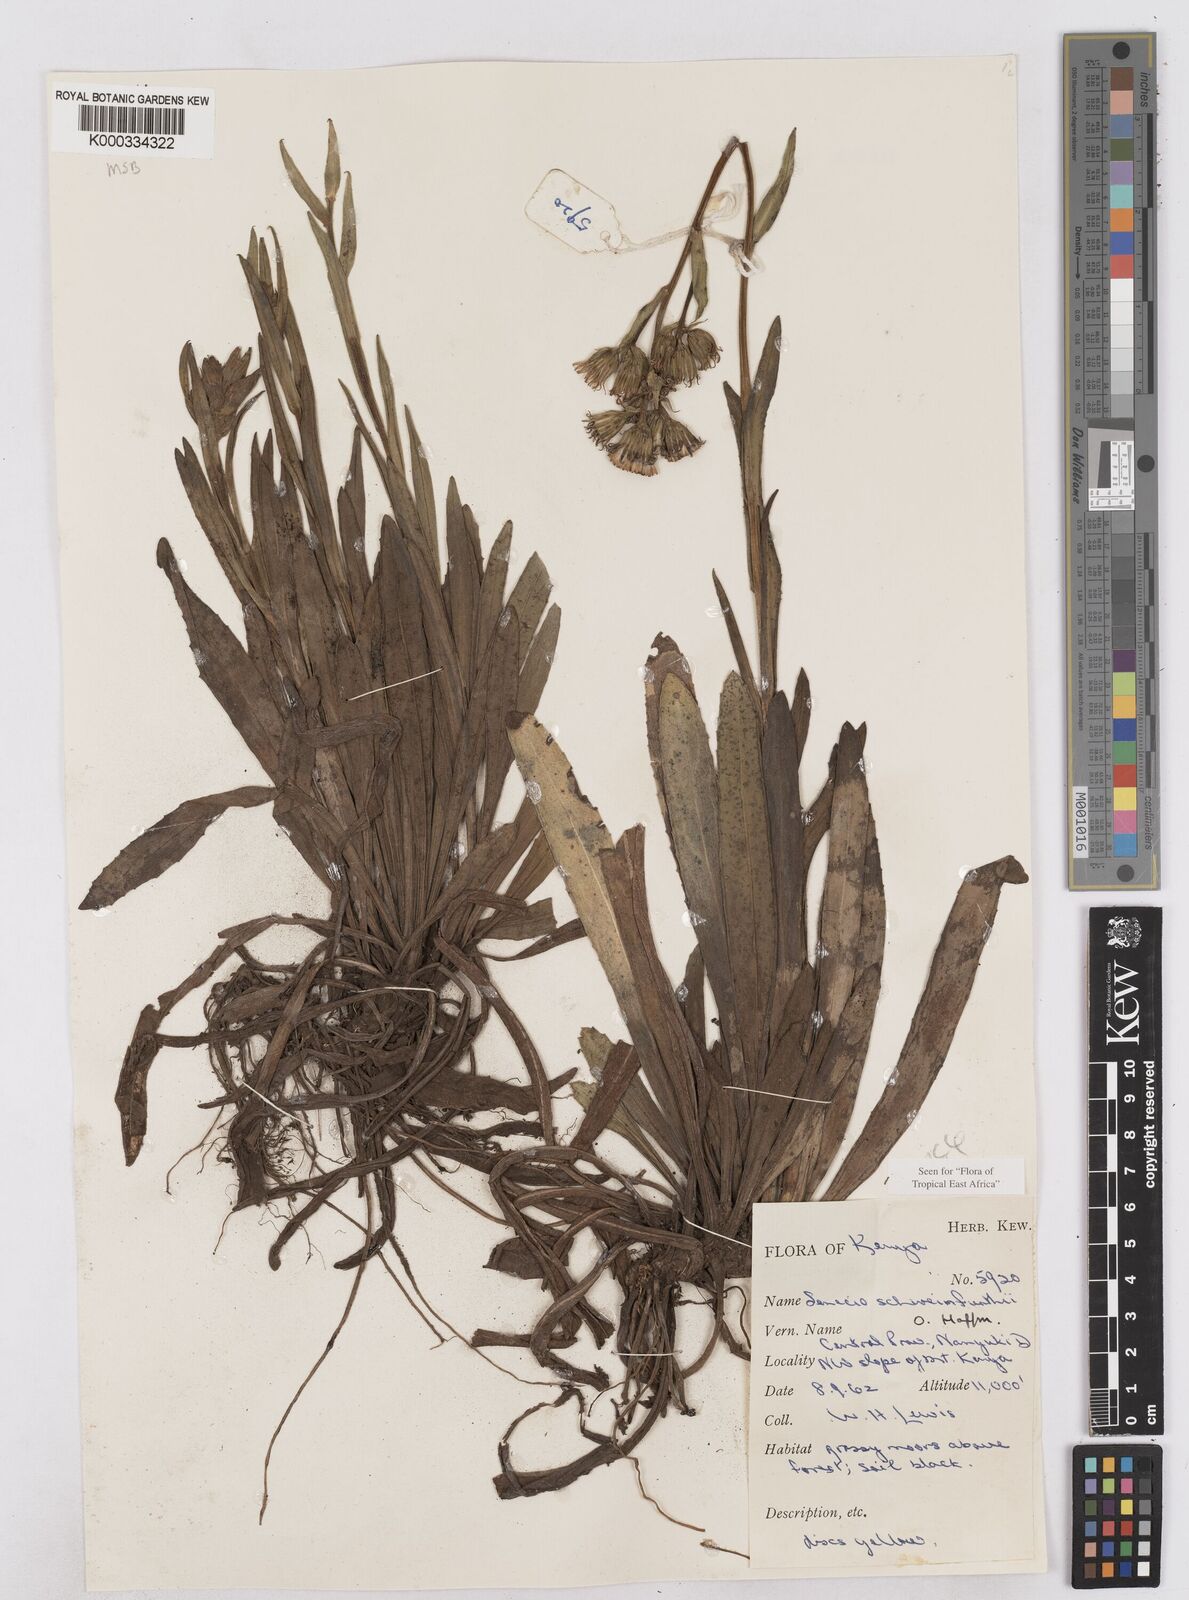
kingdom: Plantae
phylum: Tracheophyta
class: Magnoliopsida
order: Asterales
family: Asteraceae
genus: Senecio
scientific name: Senecio schweinfurthii
